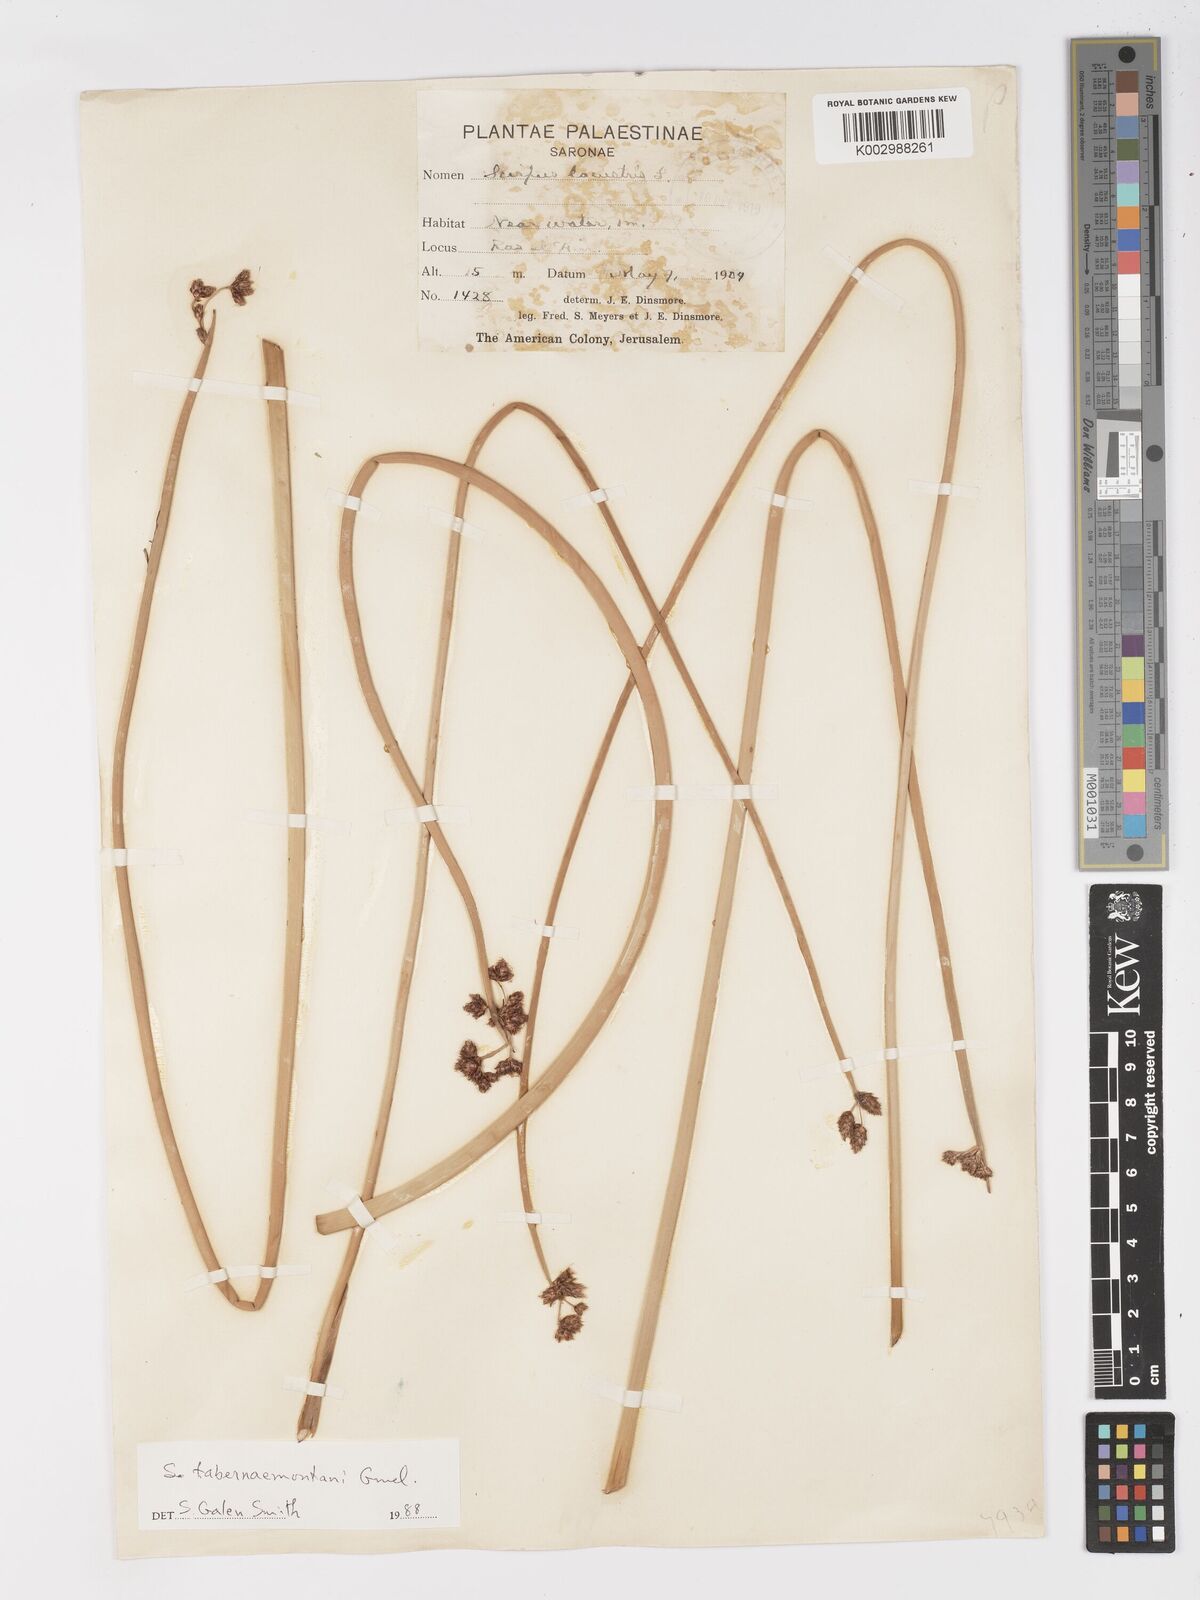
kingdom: Plantae
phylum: Tracheophyta
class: Liliopsida
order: Poales
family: Cyperaceae
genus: Schoenoplectus
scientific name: Schoenoplectus
